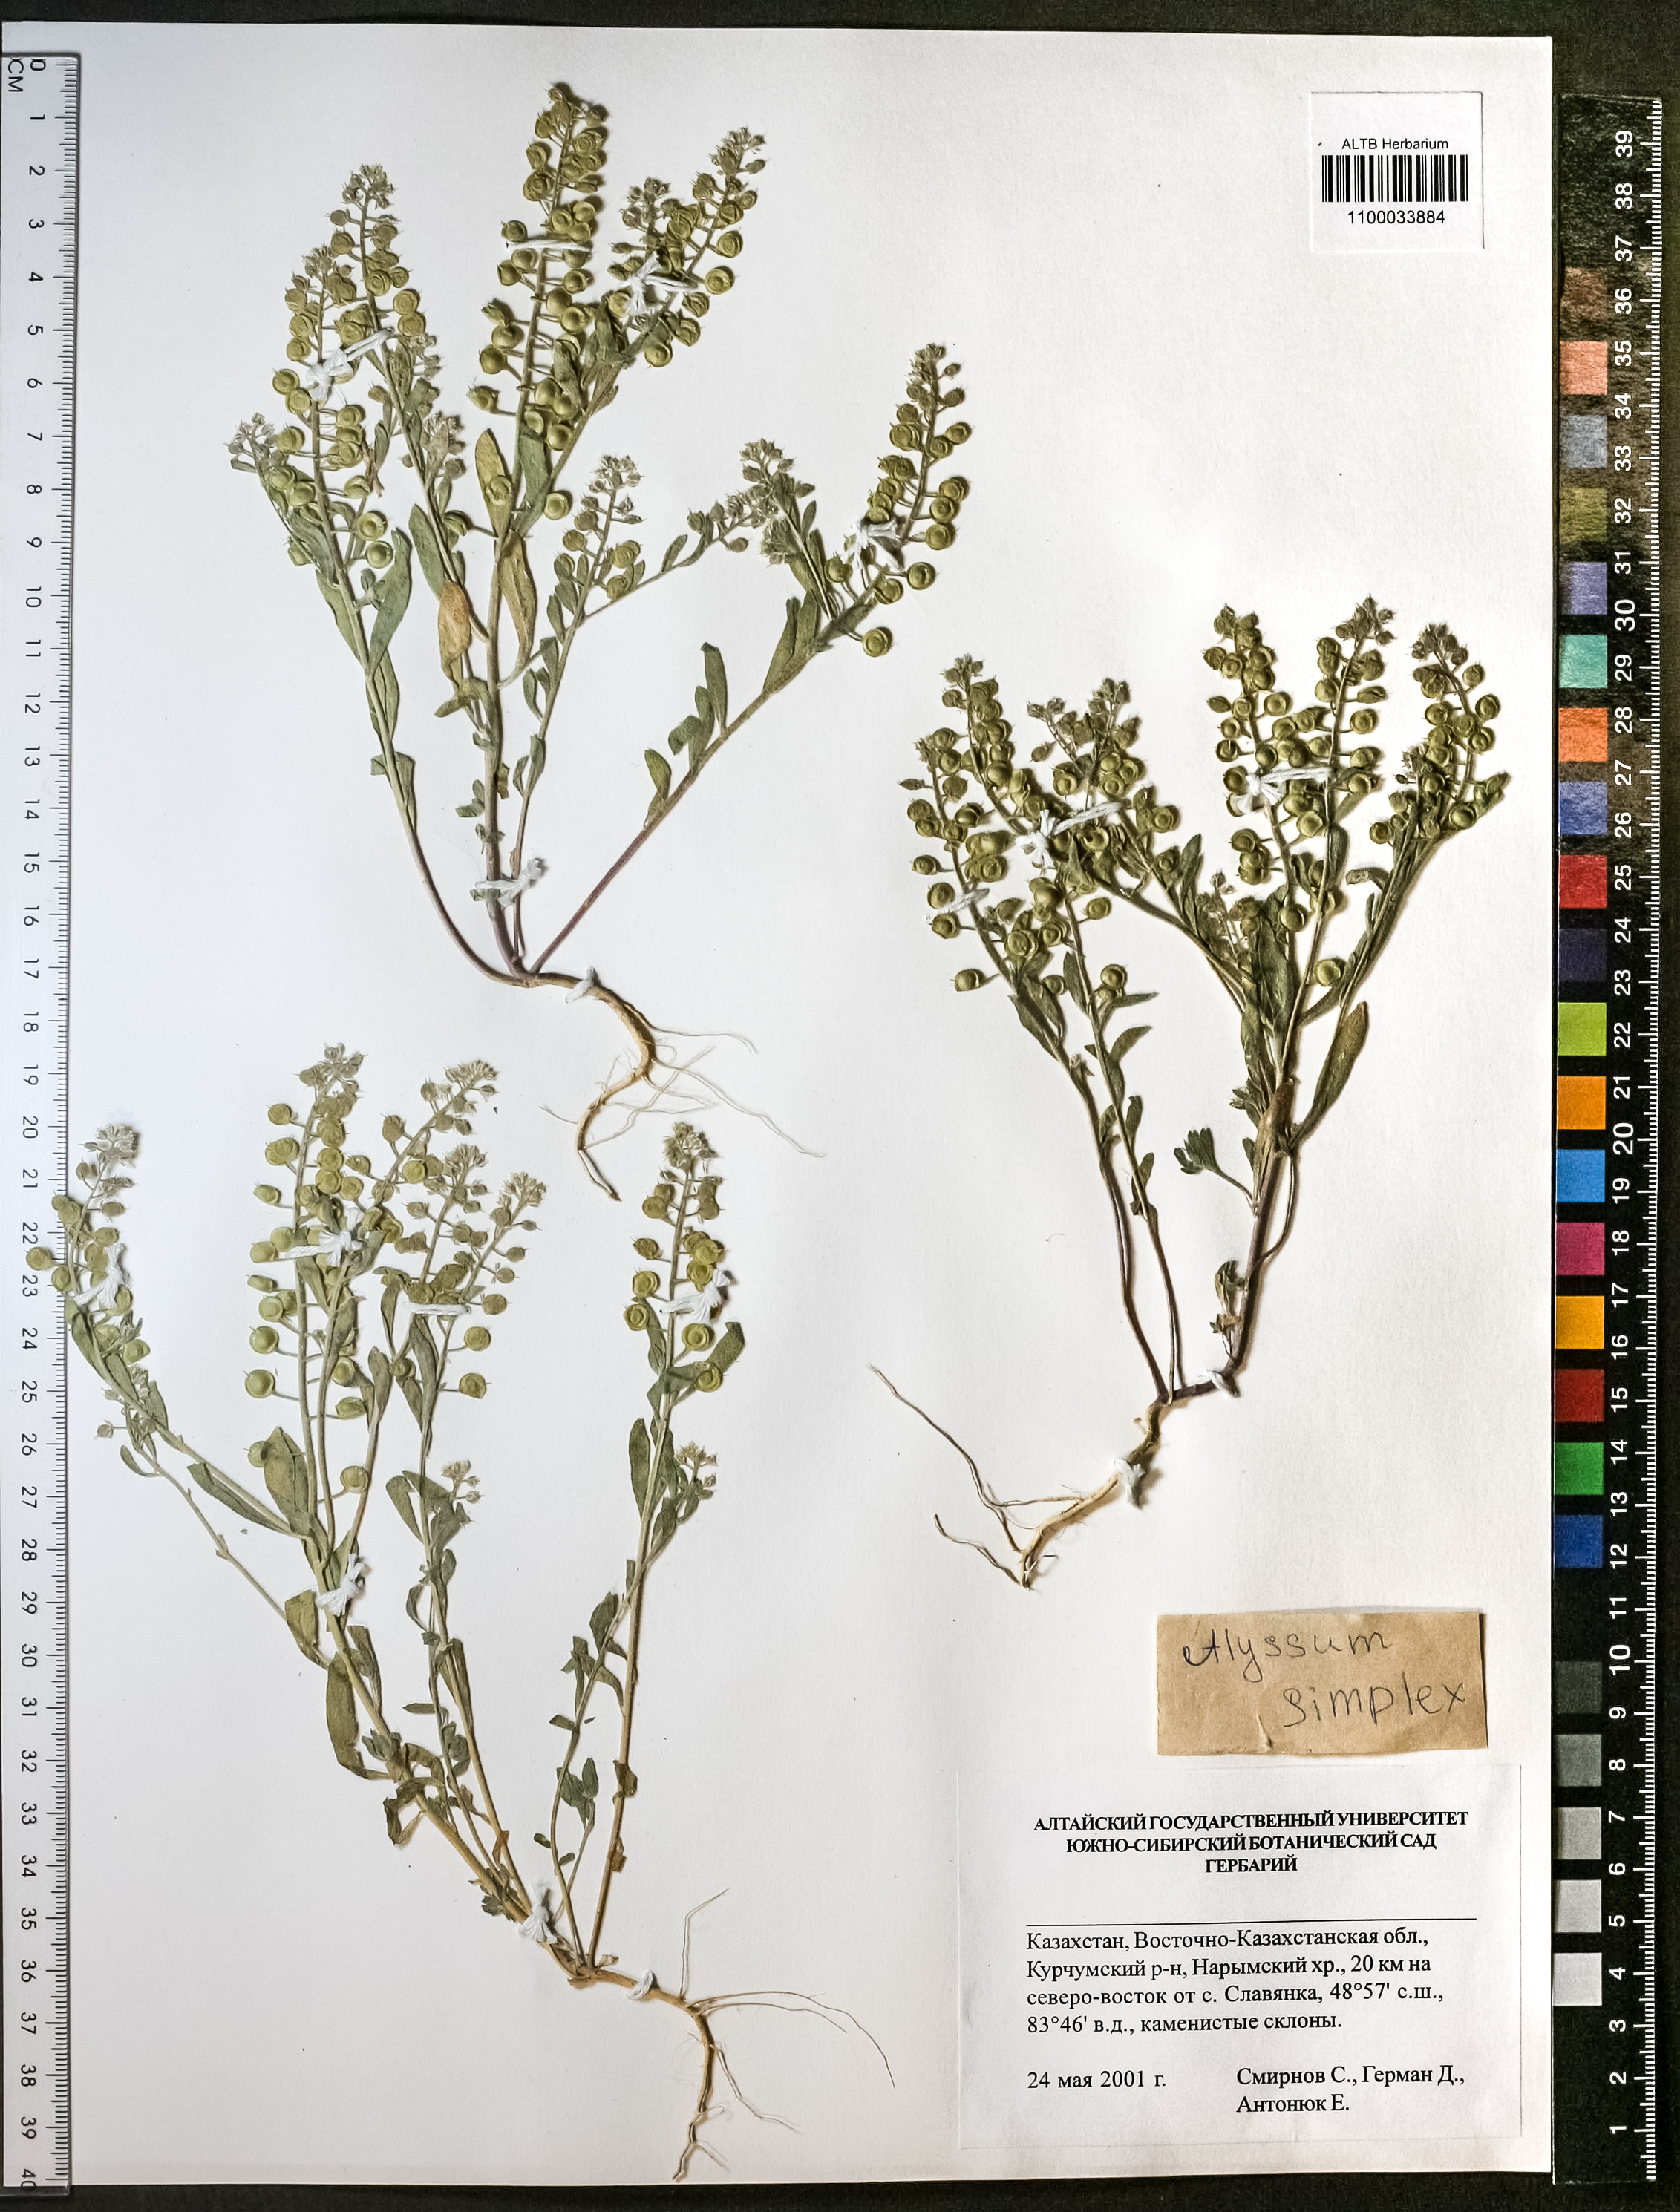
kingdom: Plantae
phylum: Tracheophyta
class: Magnoliopsida
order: Brassicales
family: Brassicaceae
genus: Alyssum
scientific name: Alyssum simplex
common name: Alyssum
